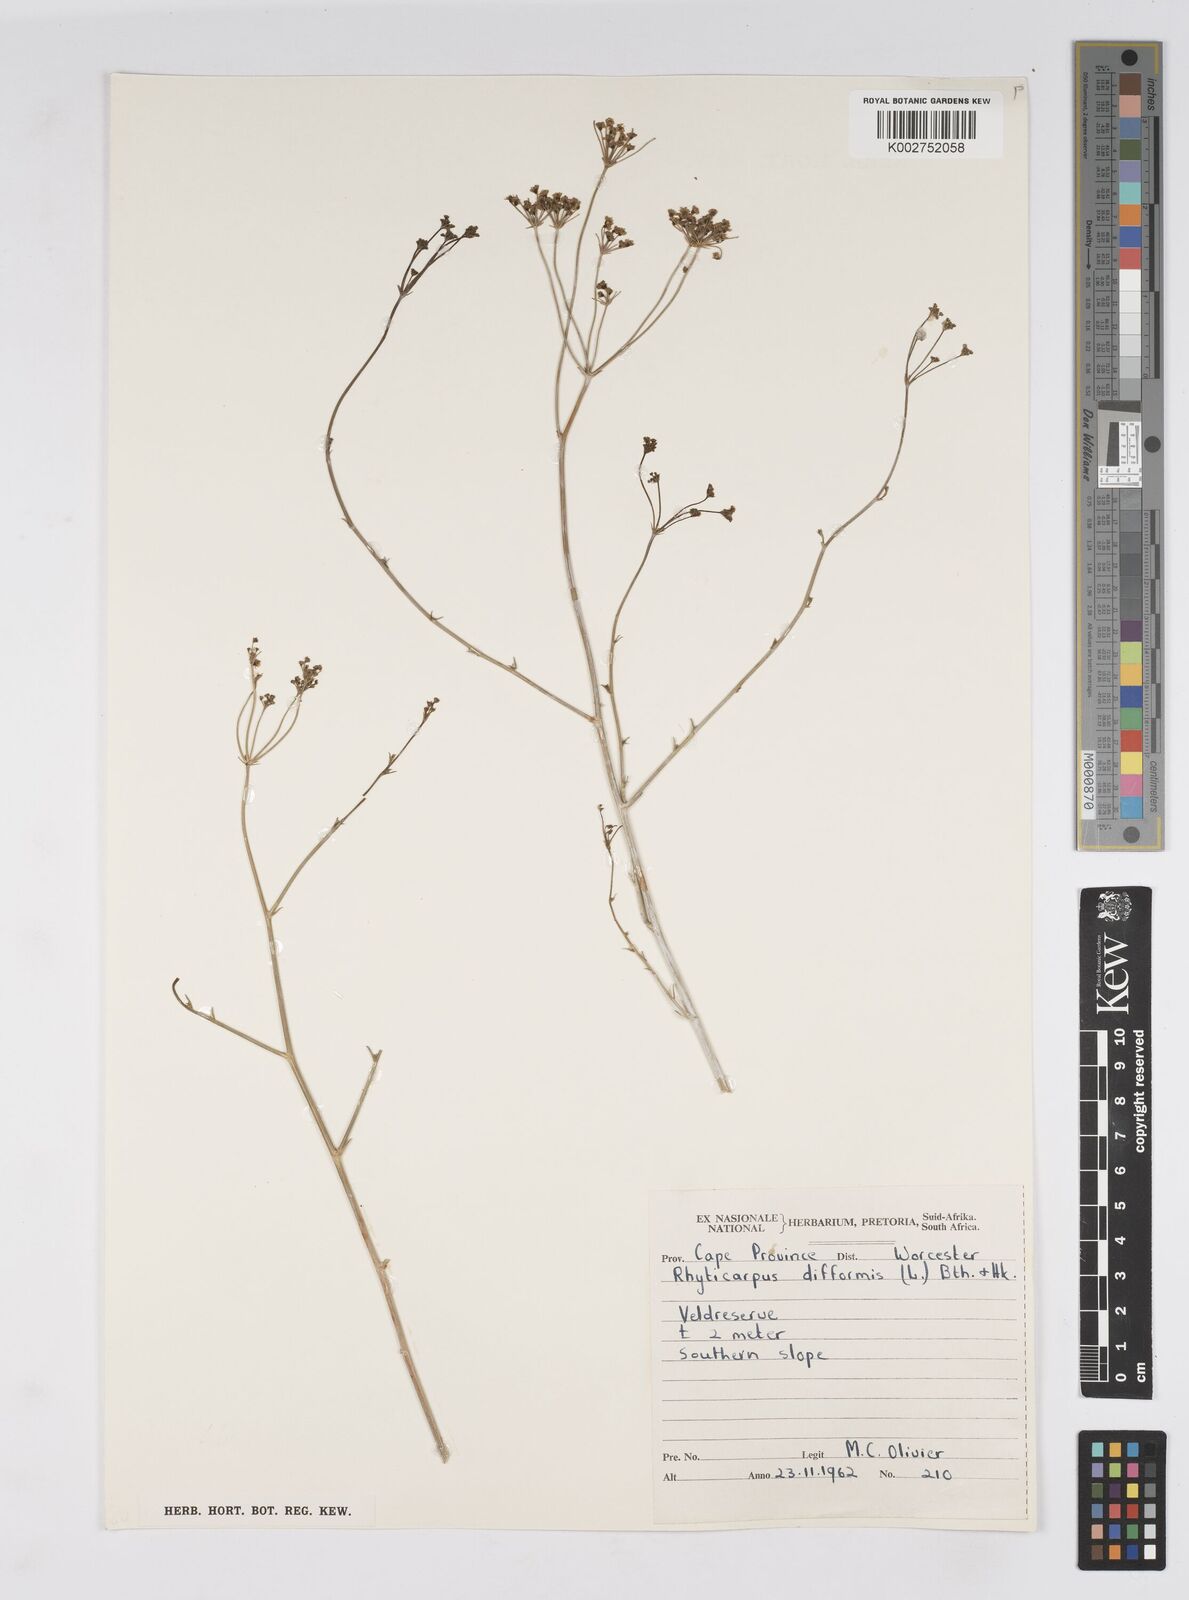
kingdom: Plantae
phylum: Tracheophyta
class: Magnoliopsida
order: Apiales
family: Apiaceae
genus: Anginon
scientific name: Anginon swellendamense
